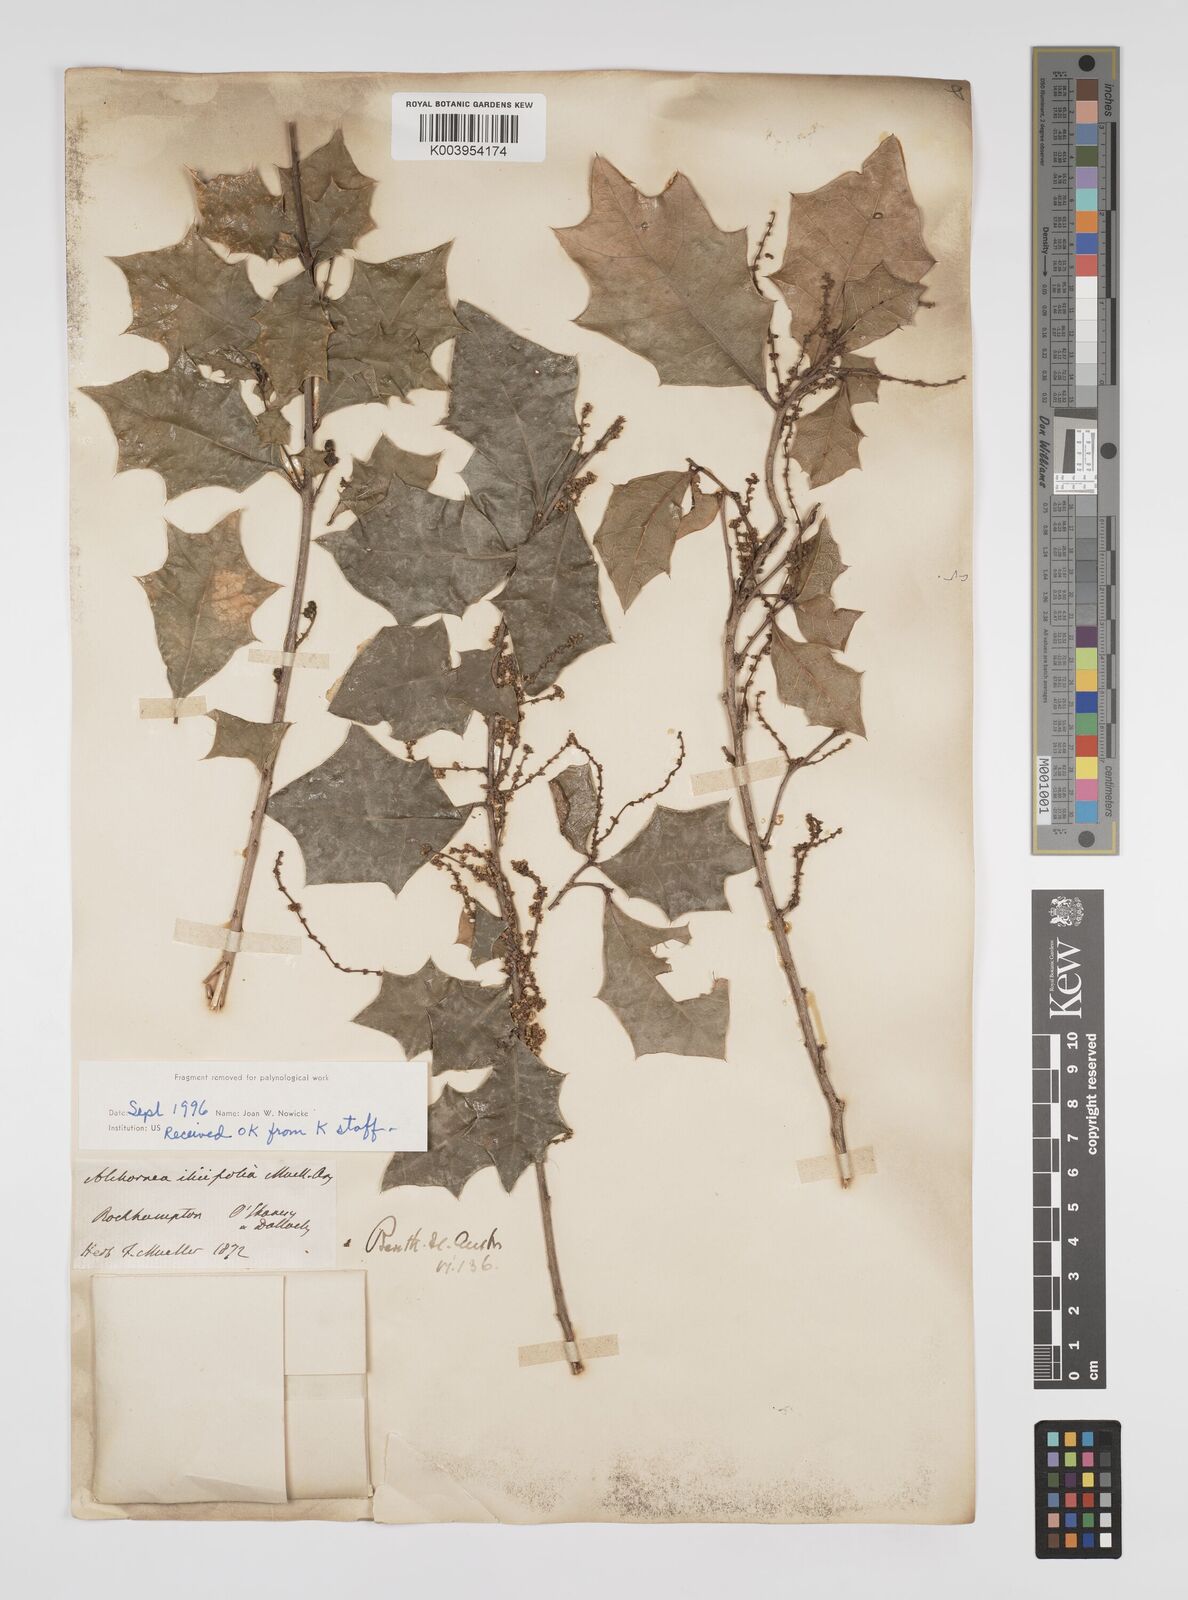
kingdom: Plantae
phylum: Tracheophyta
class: Magnoliopsida
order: Malpighiales
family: Euphorbiaceae
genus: Alchornea
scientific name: Alchornea ilicifolia
